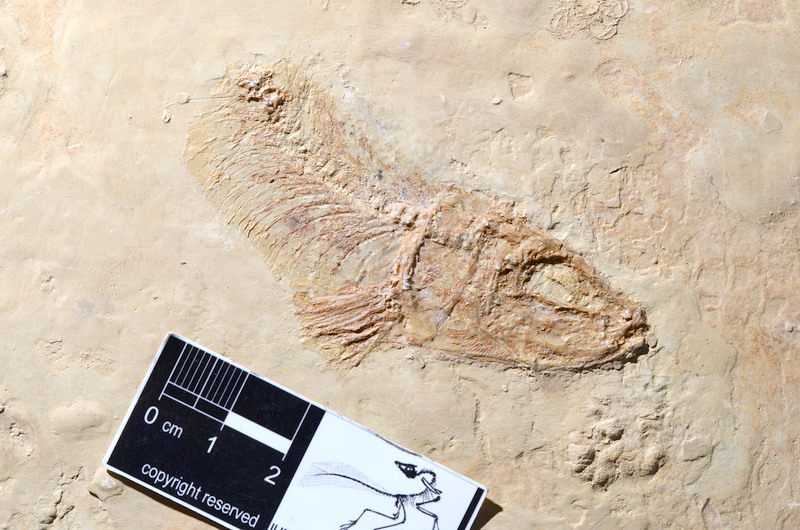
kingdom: Animalia
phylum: Chordata
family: Ascalaboidae
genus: Tharsis
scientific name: Tharsis dubius
